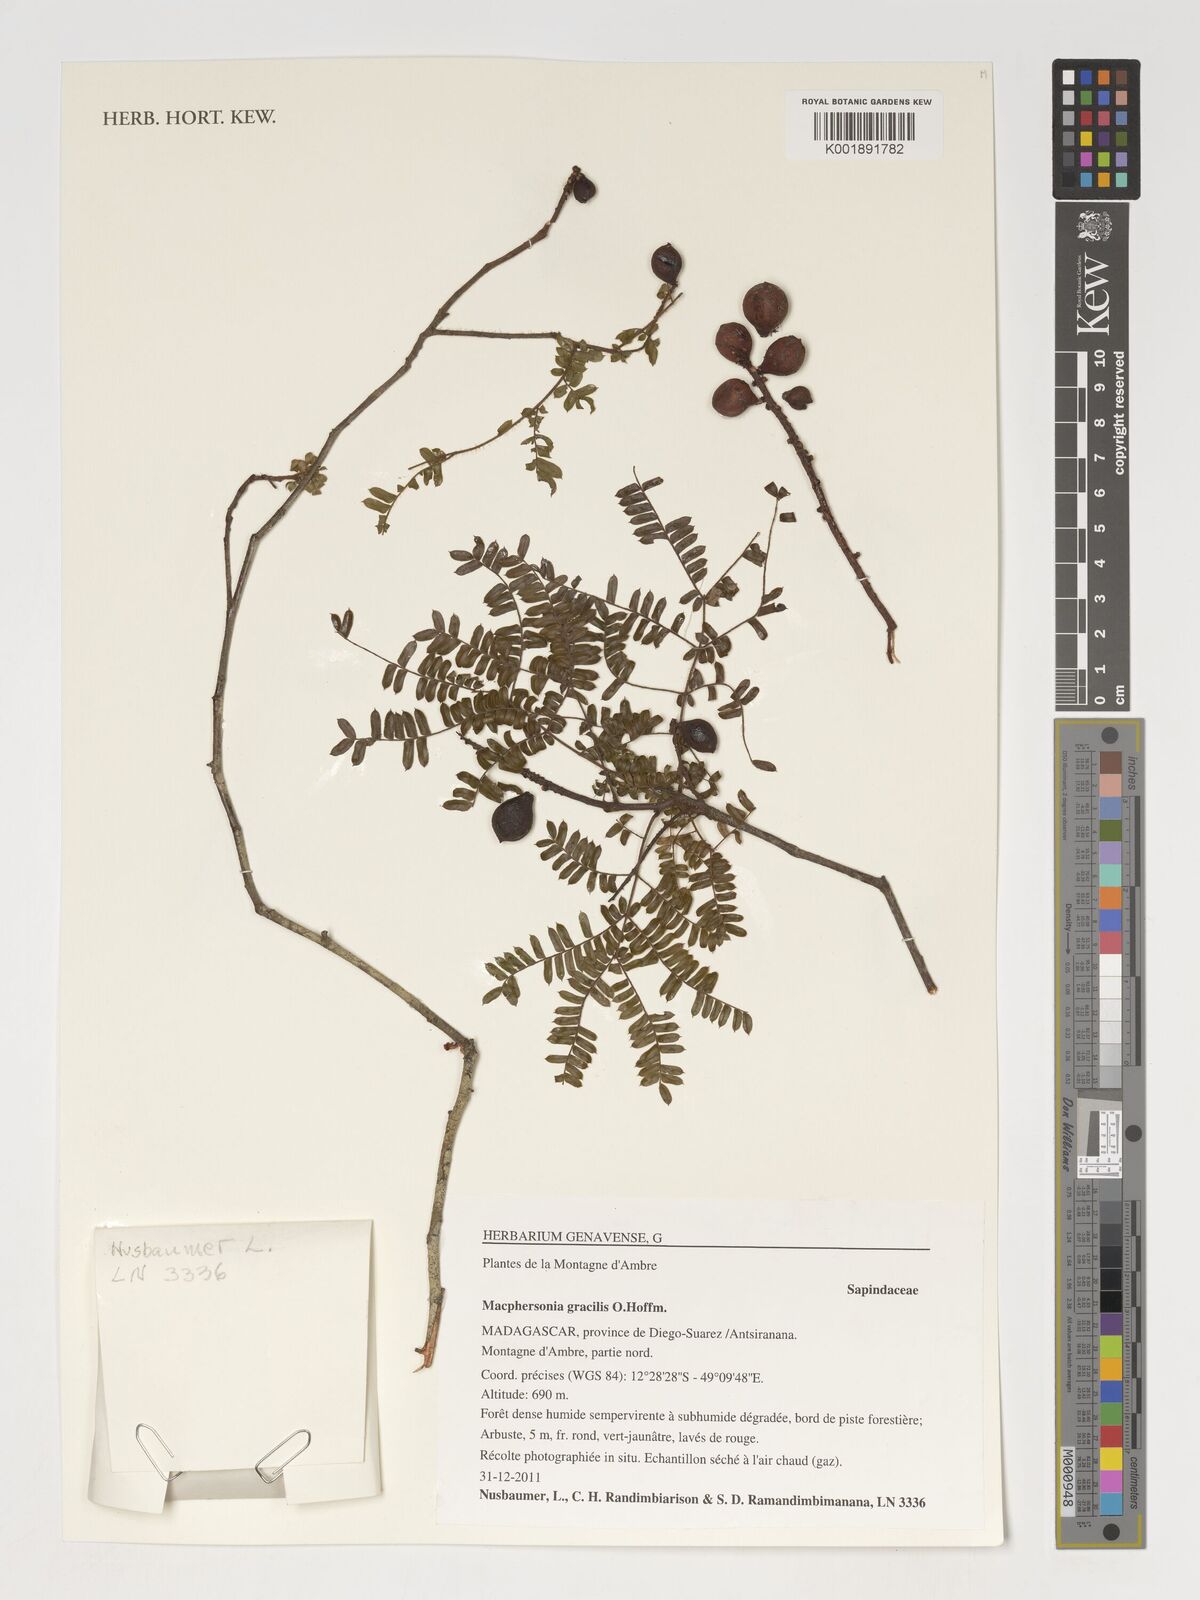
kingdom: Plantae
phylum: Tracheophyta
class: Magnoliopsida
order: Sapindales
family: Sapindaceae
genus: Macphersonia
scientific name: Macphersonia gracilis
